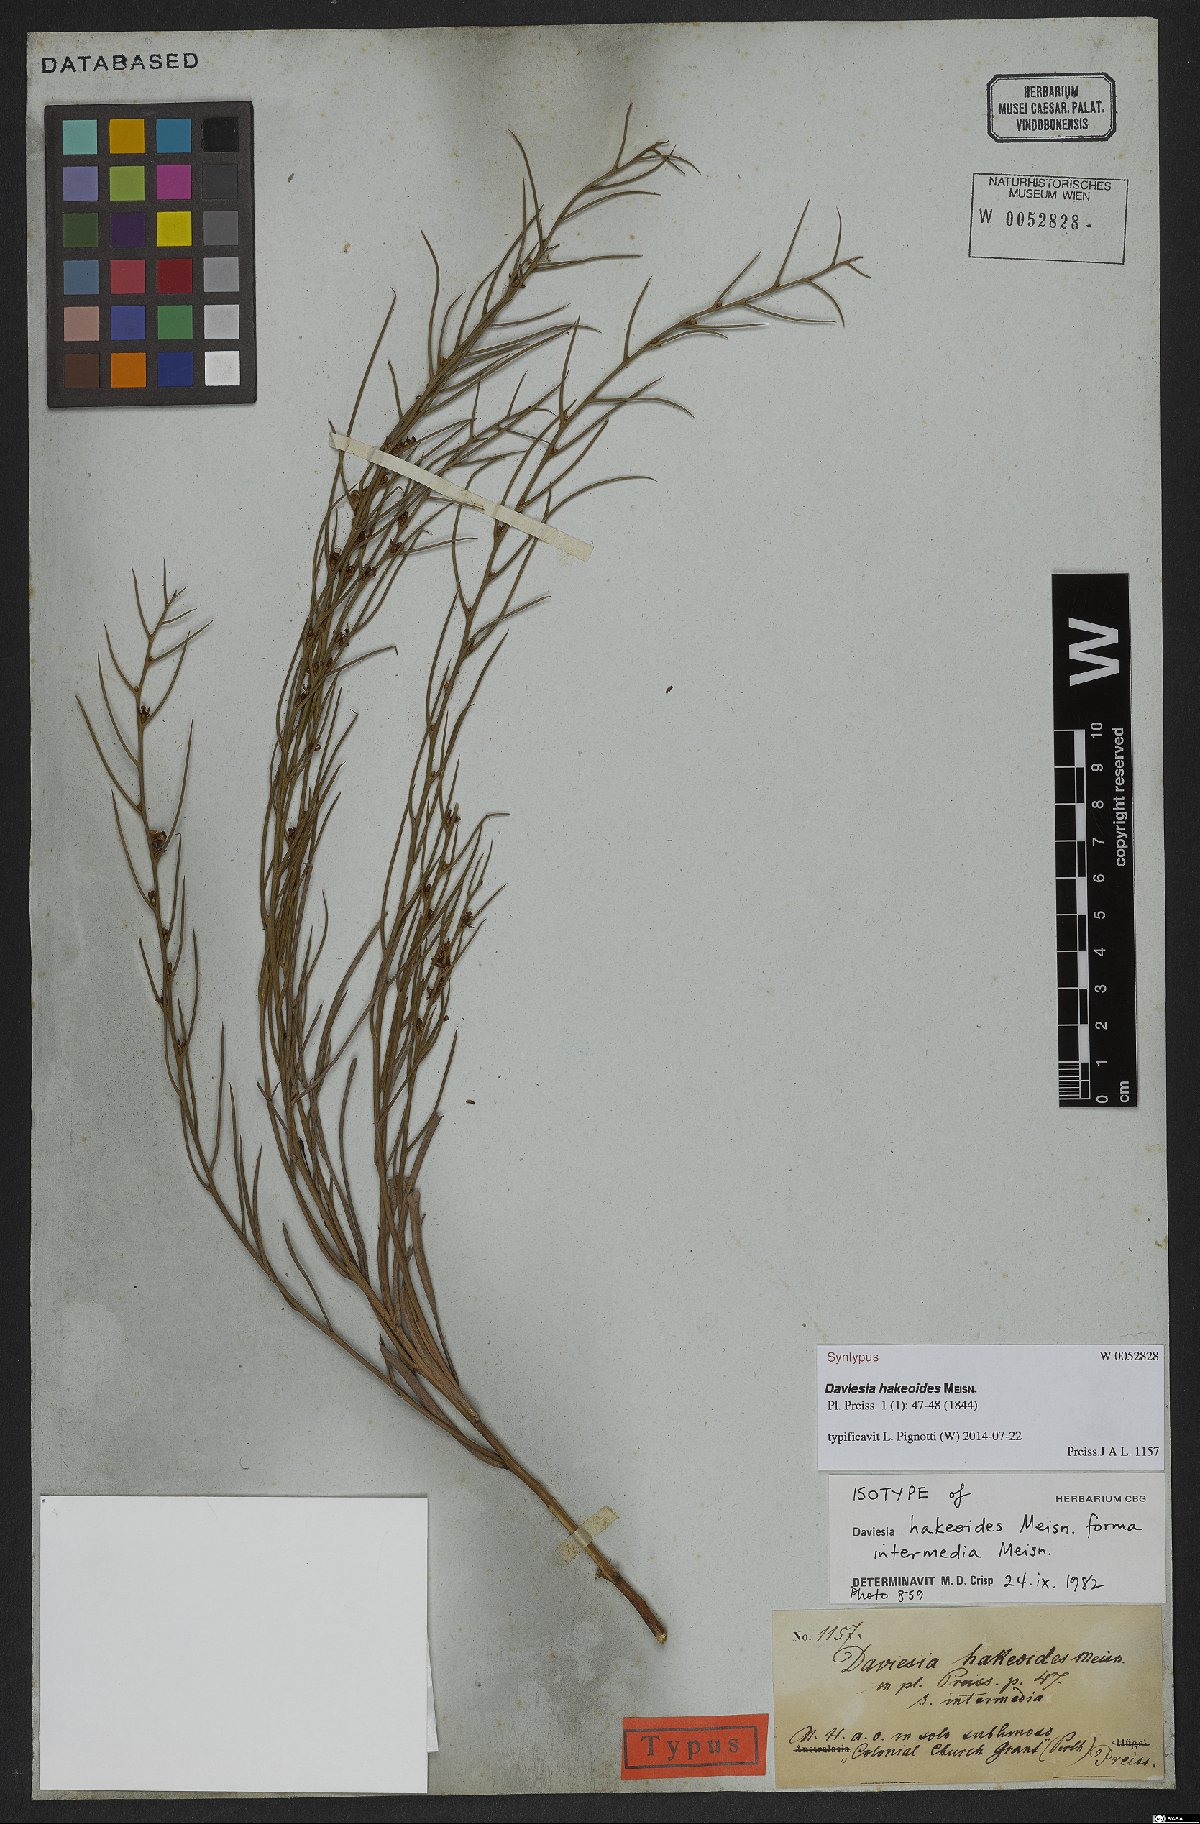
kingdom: Plantae
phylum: Tracheophyta
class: Magnoliopsida
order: Fabales
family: Fabaceae
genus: Daviesia
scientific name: Daviesia hakeoides
